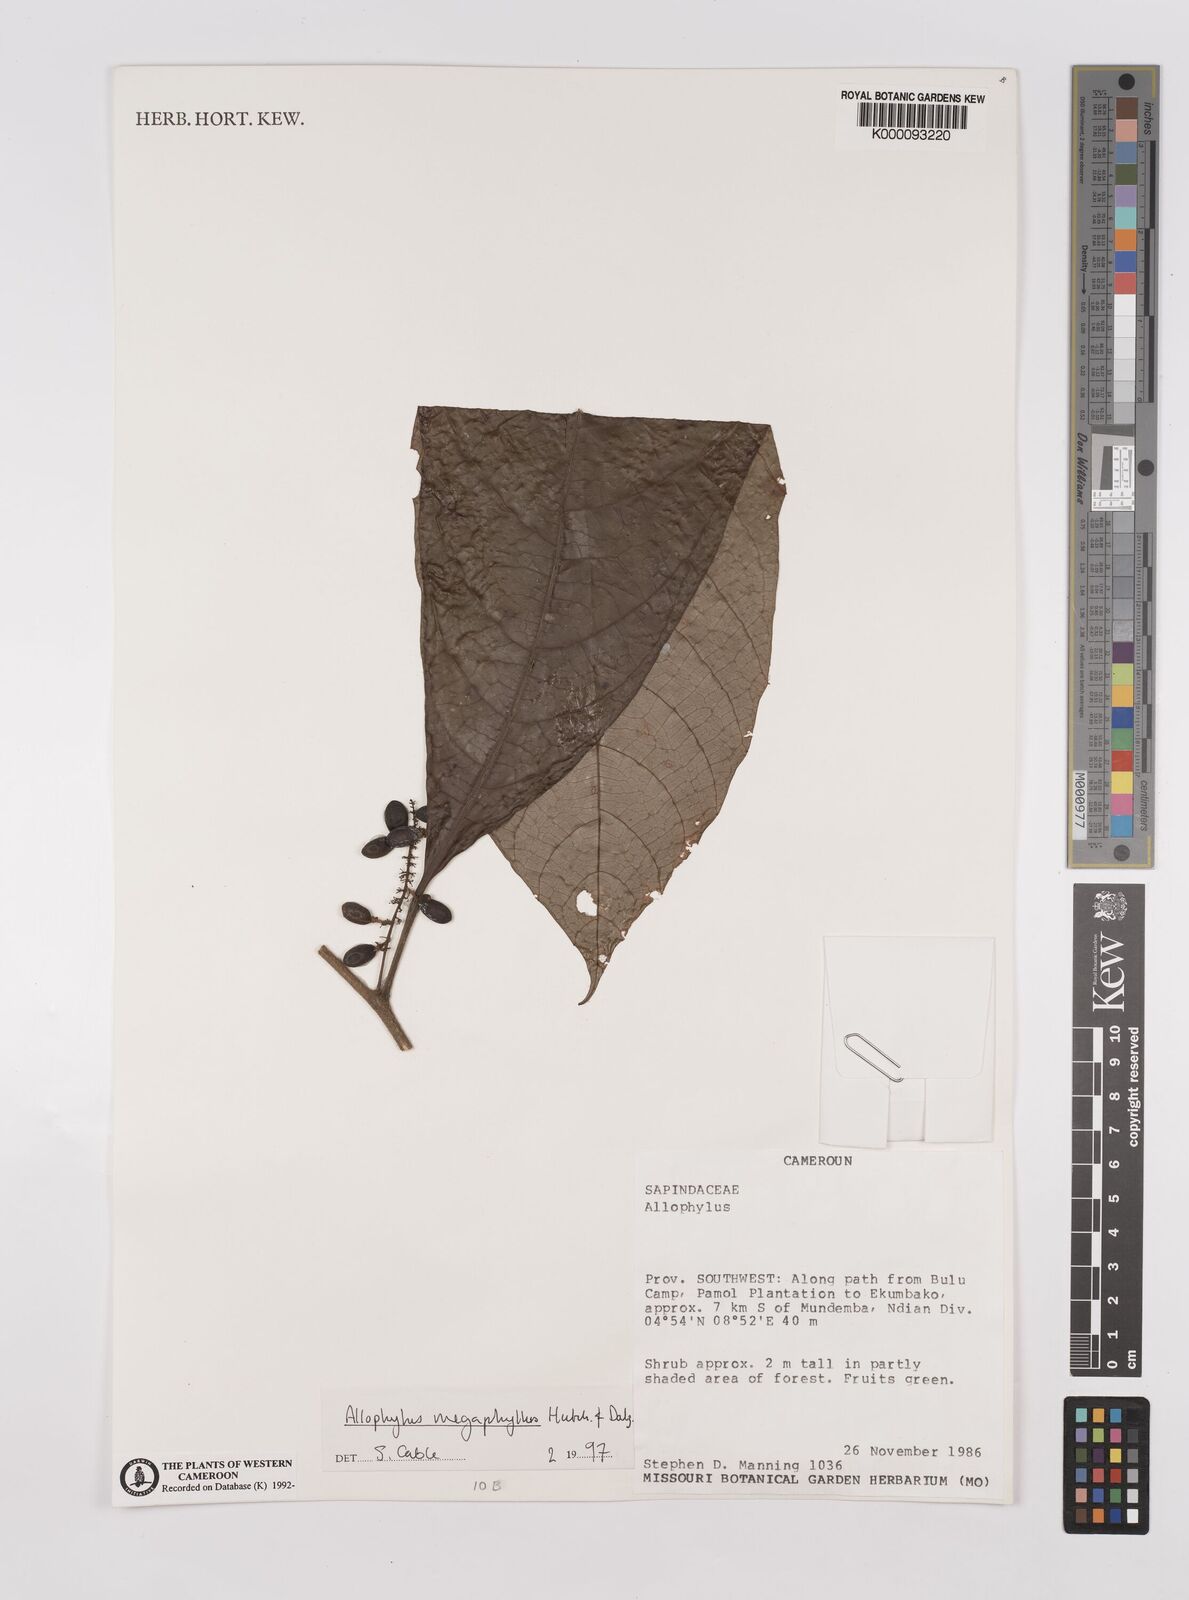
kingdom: Plantae
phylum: Tracheophyta
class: Magnoliopsida
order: Sapindales
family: Sapindaceae
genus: Allophylus
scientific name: Allophylus megaphyllus
